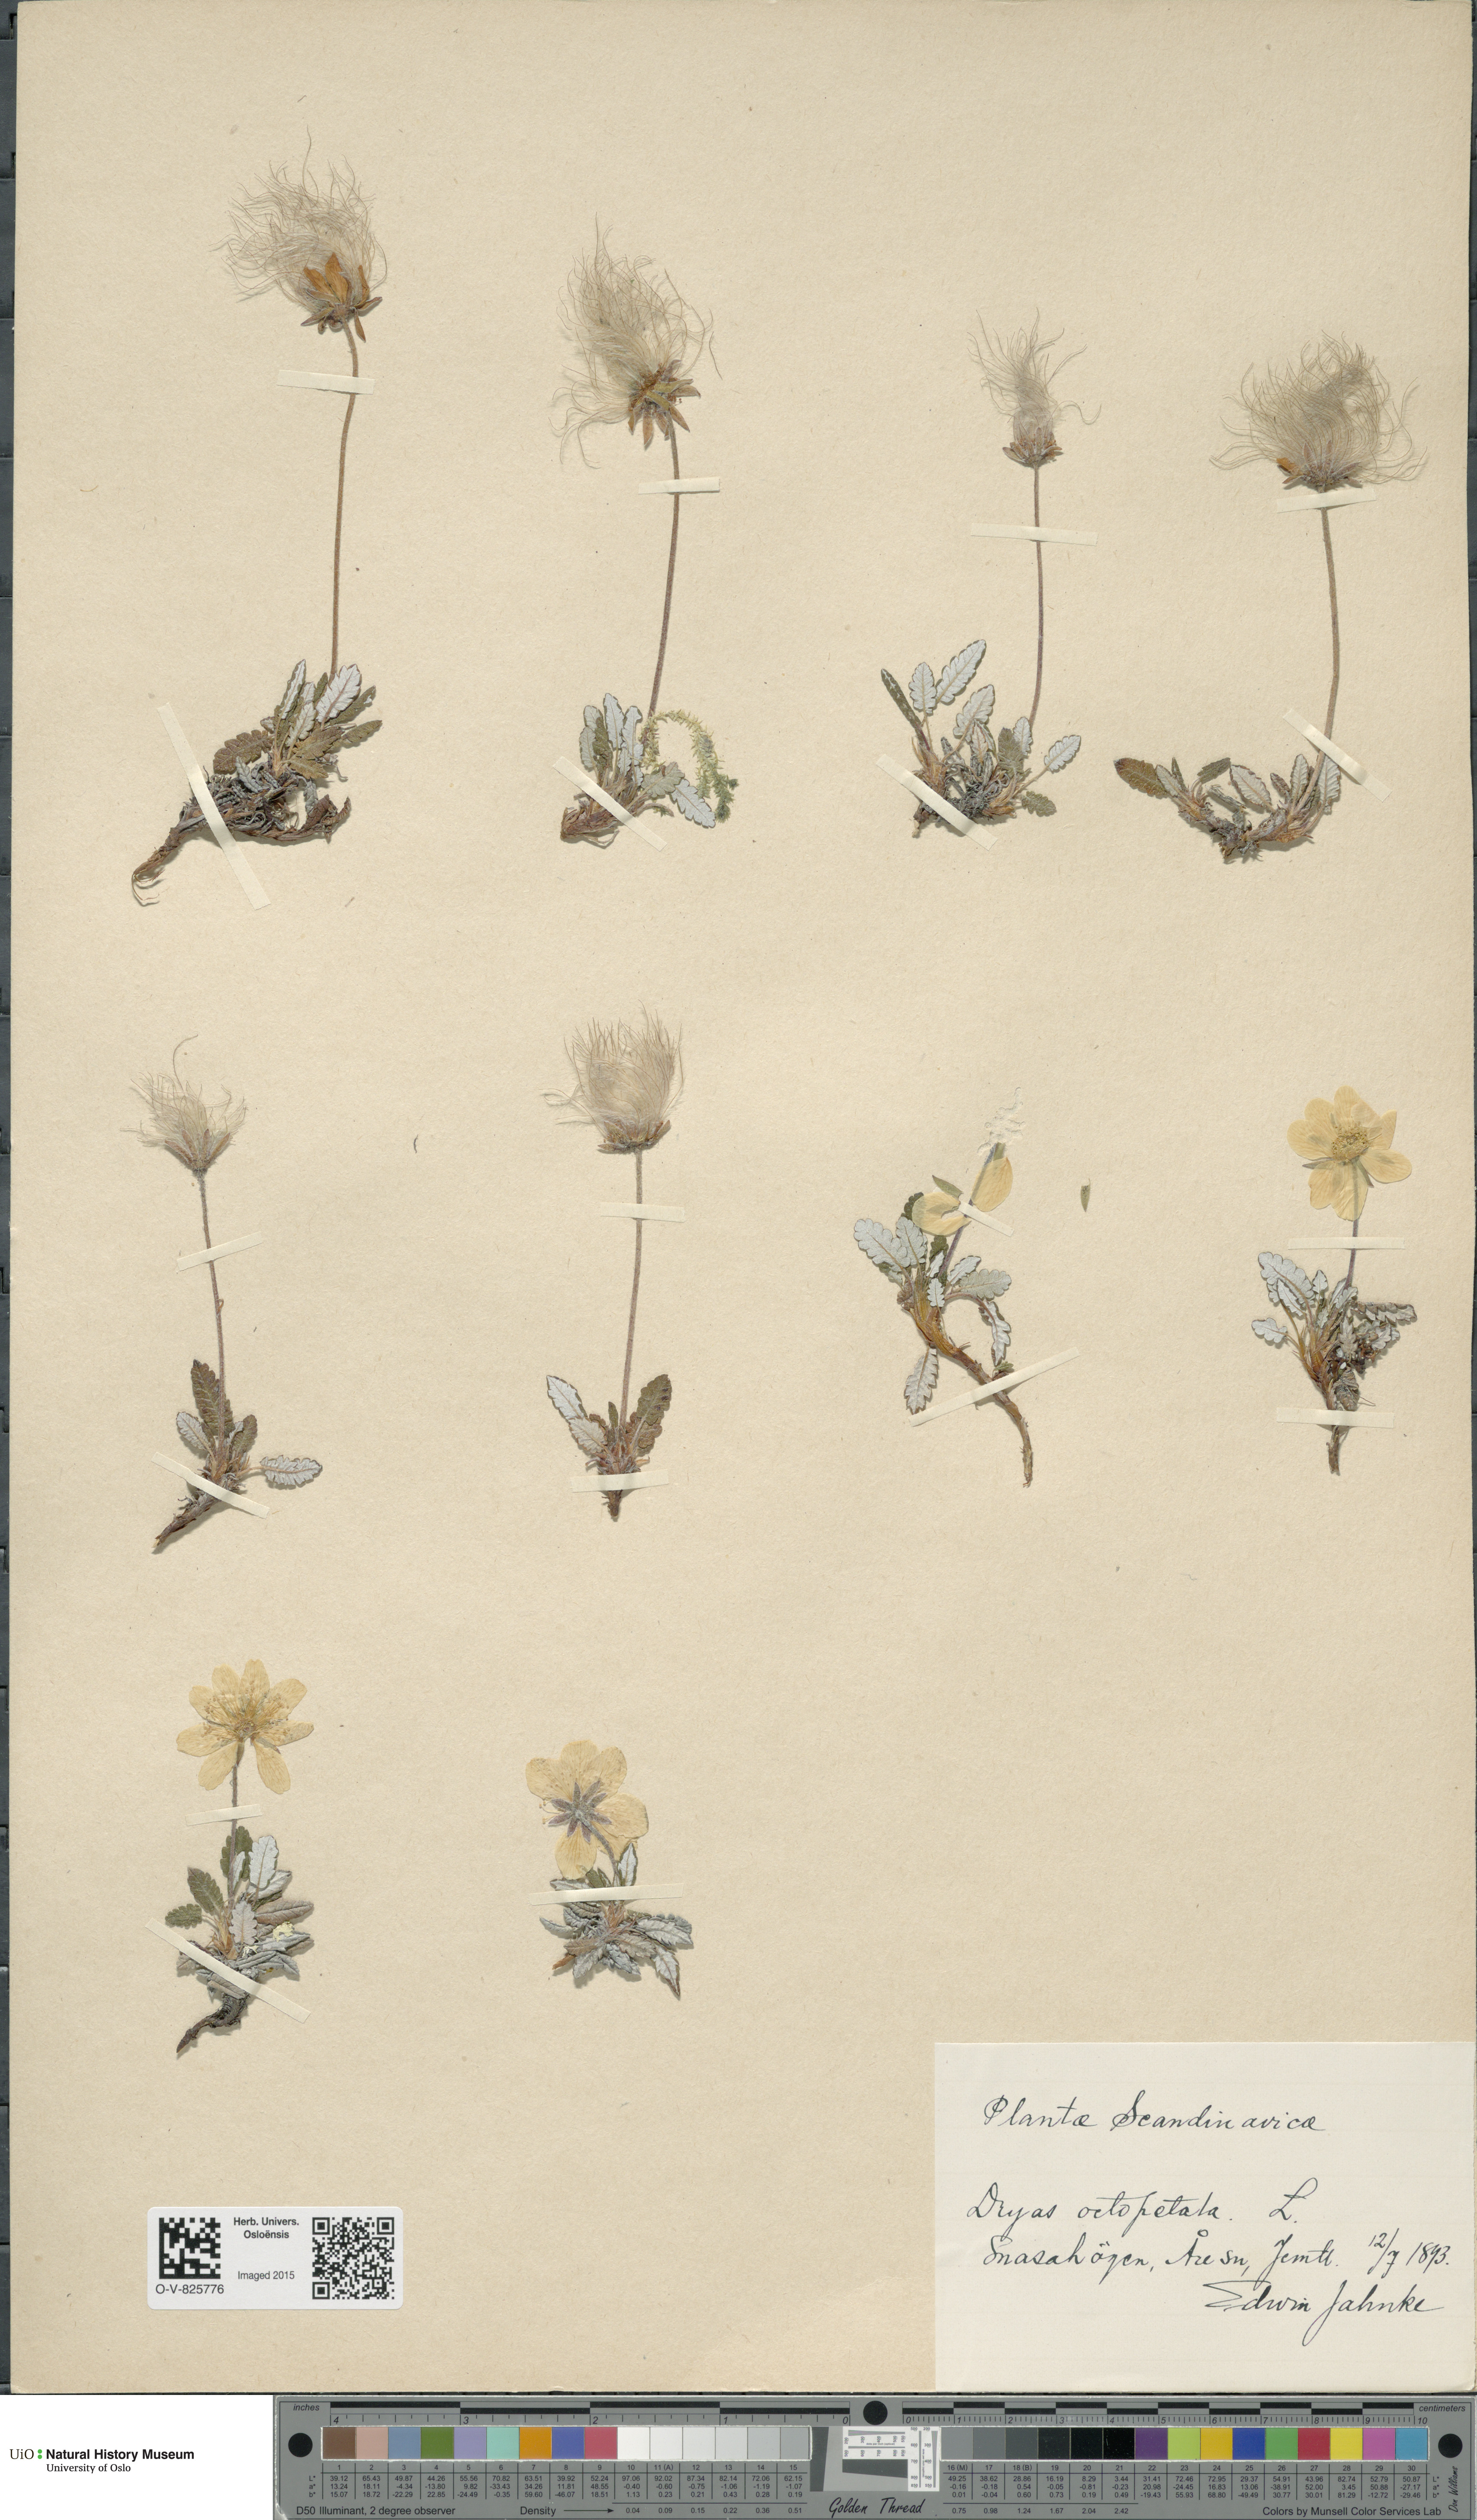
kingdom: Plantae
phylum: Tracheophyta
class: Magnoliopsida
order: Rosales
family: Rosaceae
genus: Dryas
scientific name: Dryas octopetala
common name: Eight-petal mountain-avens
